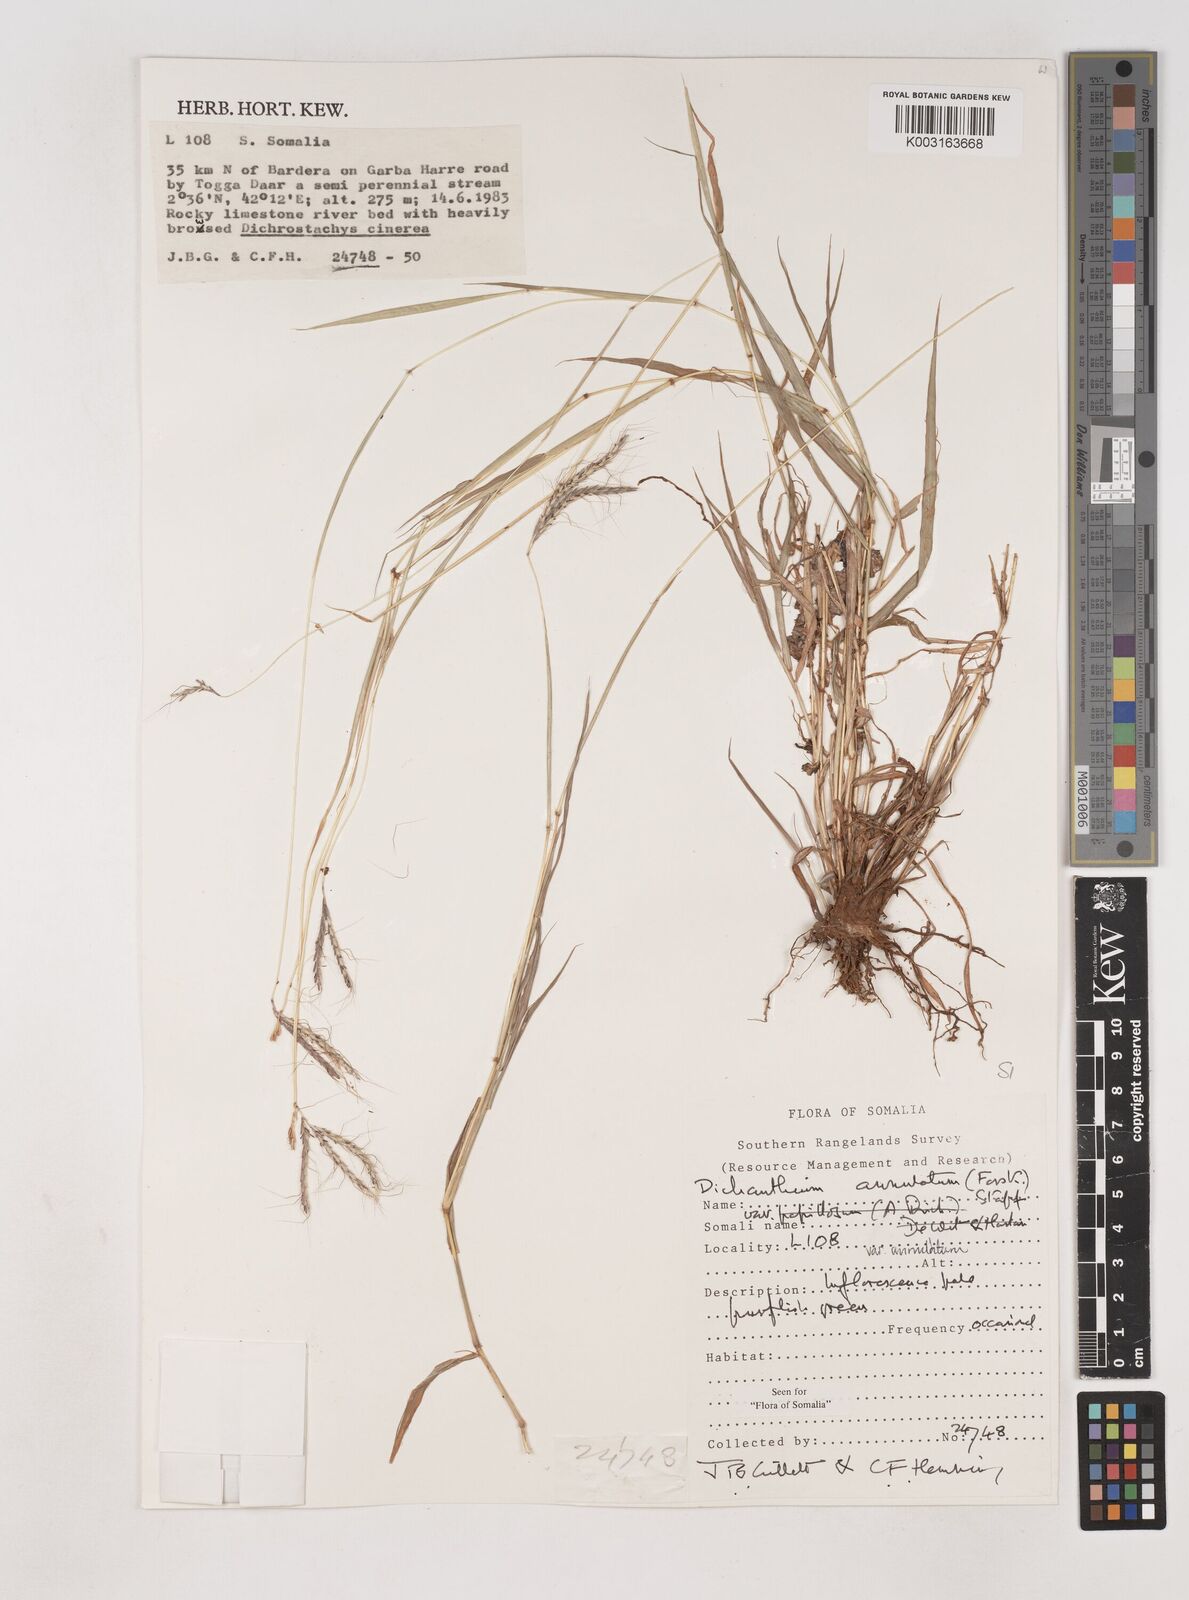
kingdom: Plantae
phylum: Tracheophyta
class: Liliopsida
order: Poales
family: Poaceae
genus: Dichanthium
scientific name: Dichanthium annulatum
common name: Kleberg's bluestem
